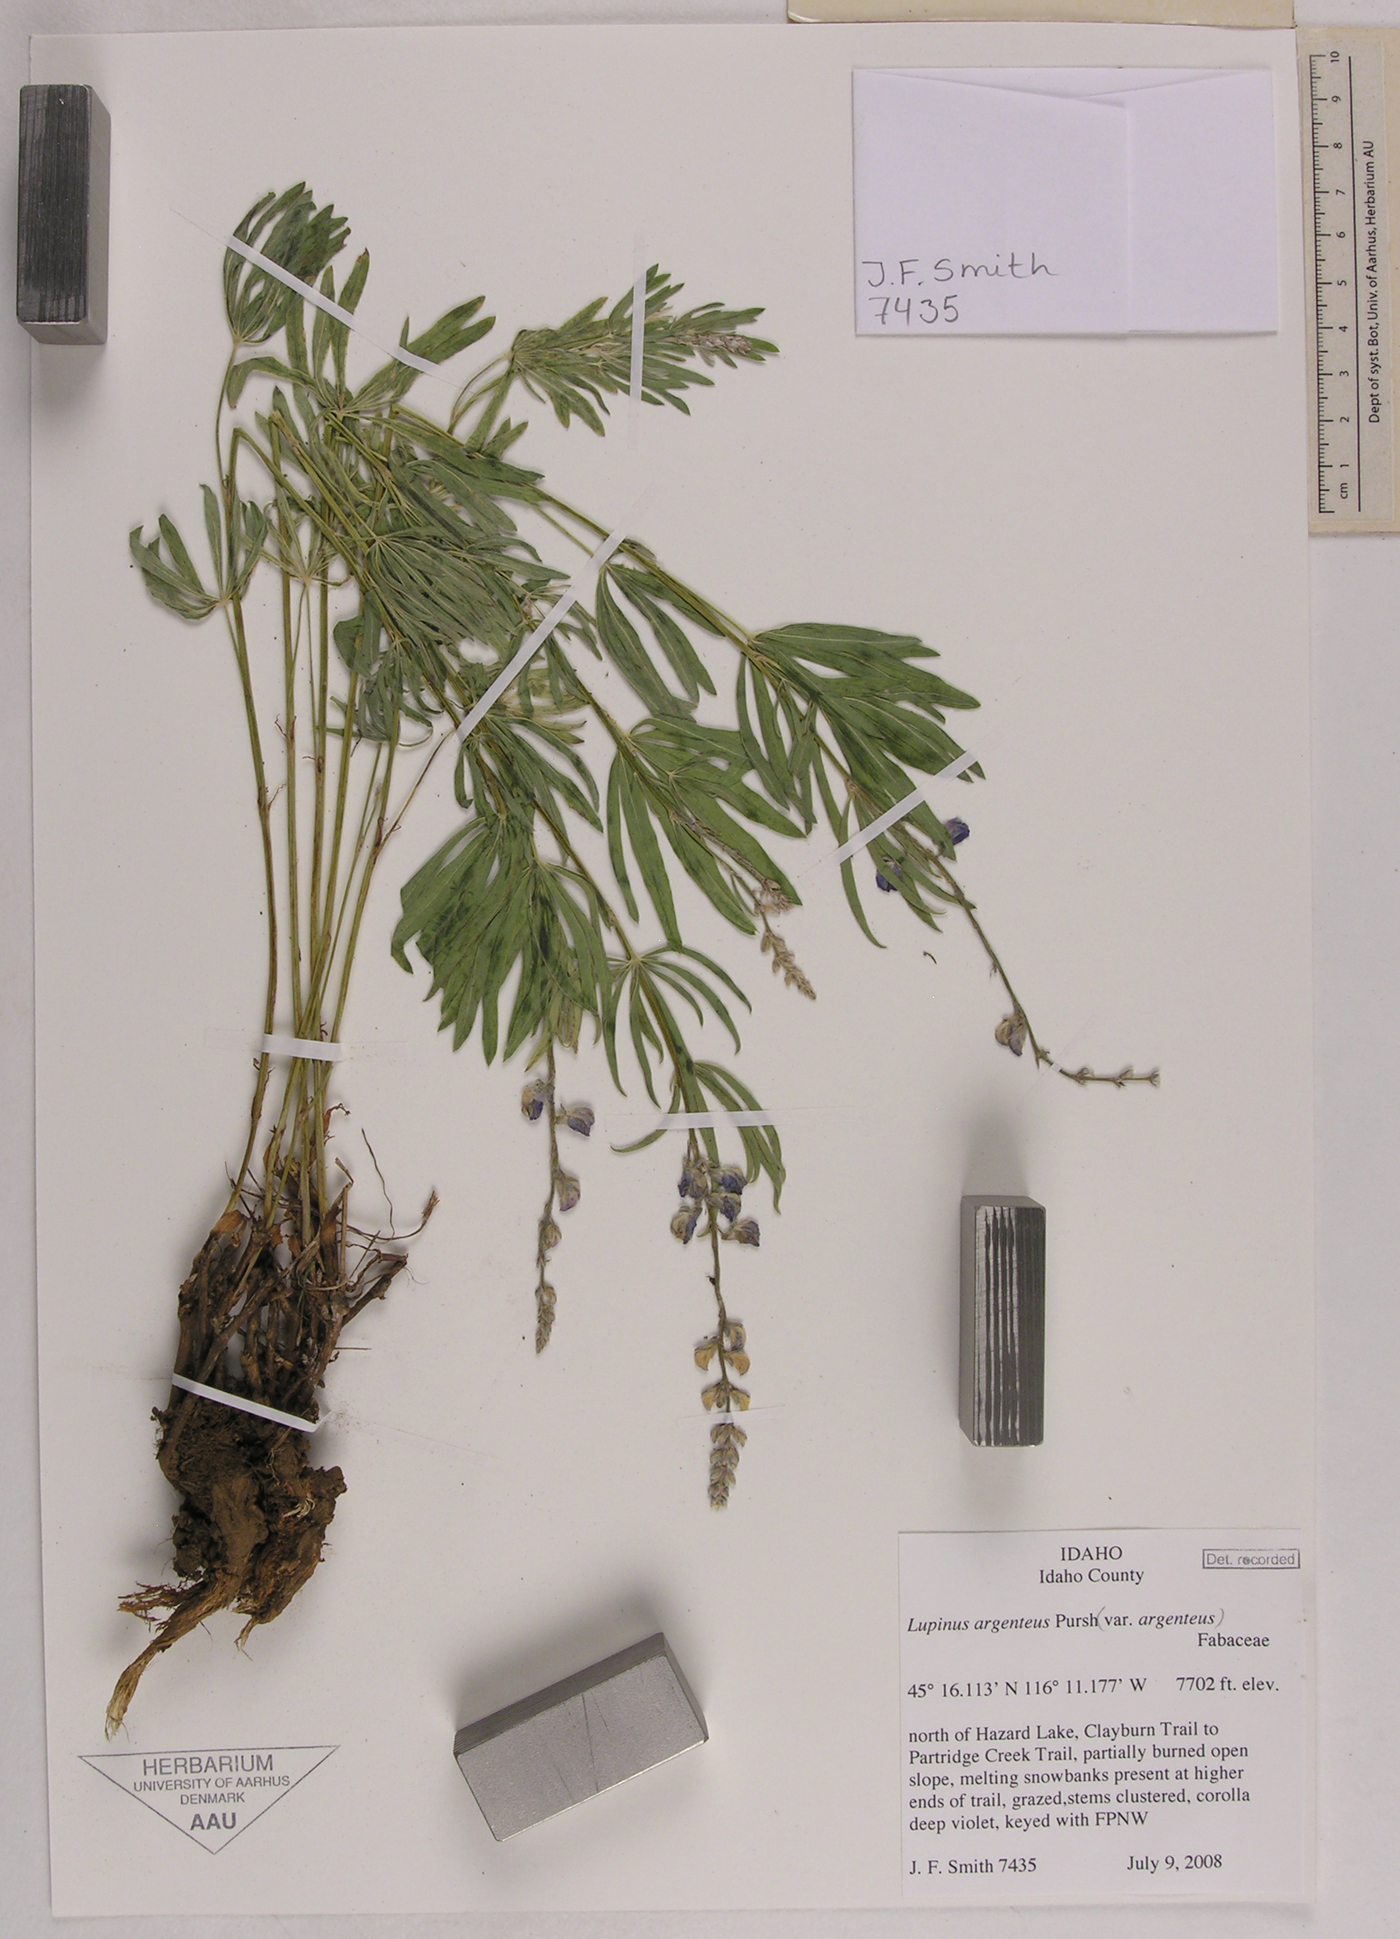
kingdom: Plantae
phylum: Tracheophyta
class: Magnoliopsida
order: Fabales
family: Fabaceae
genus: Lupinus
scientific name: Lupinus argenteus
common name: Silvery lupine
